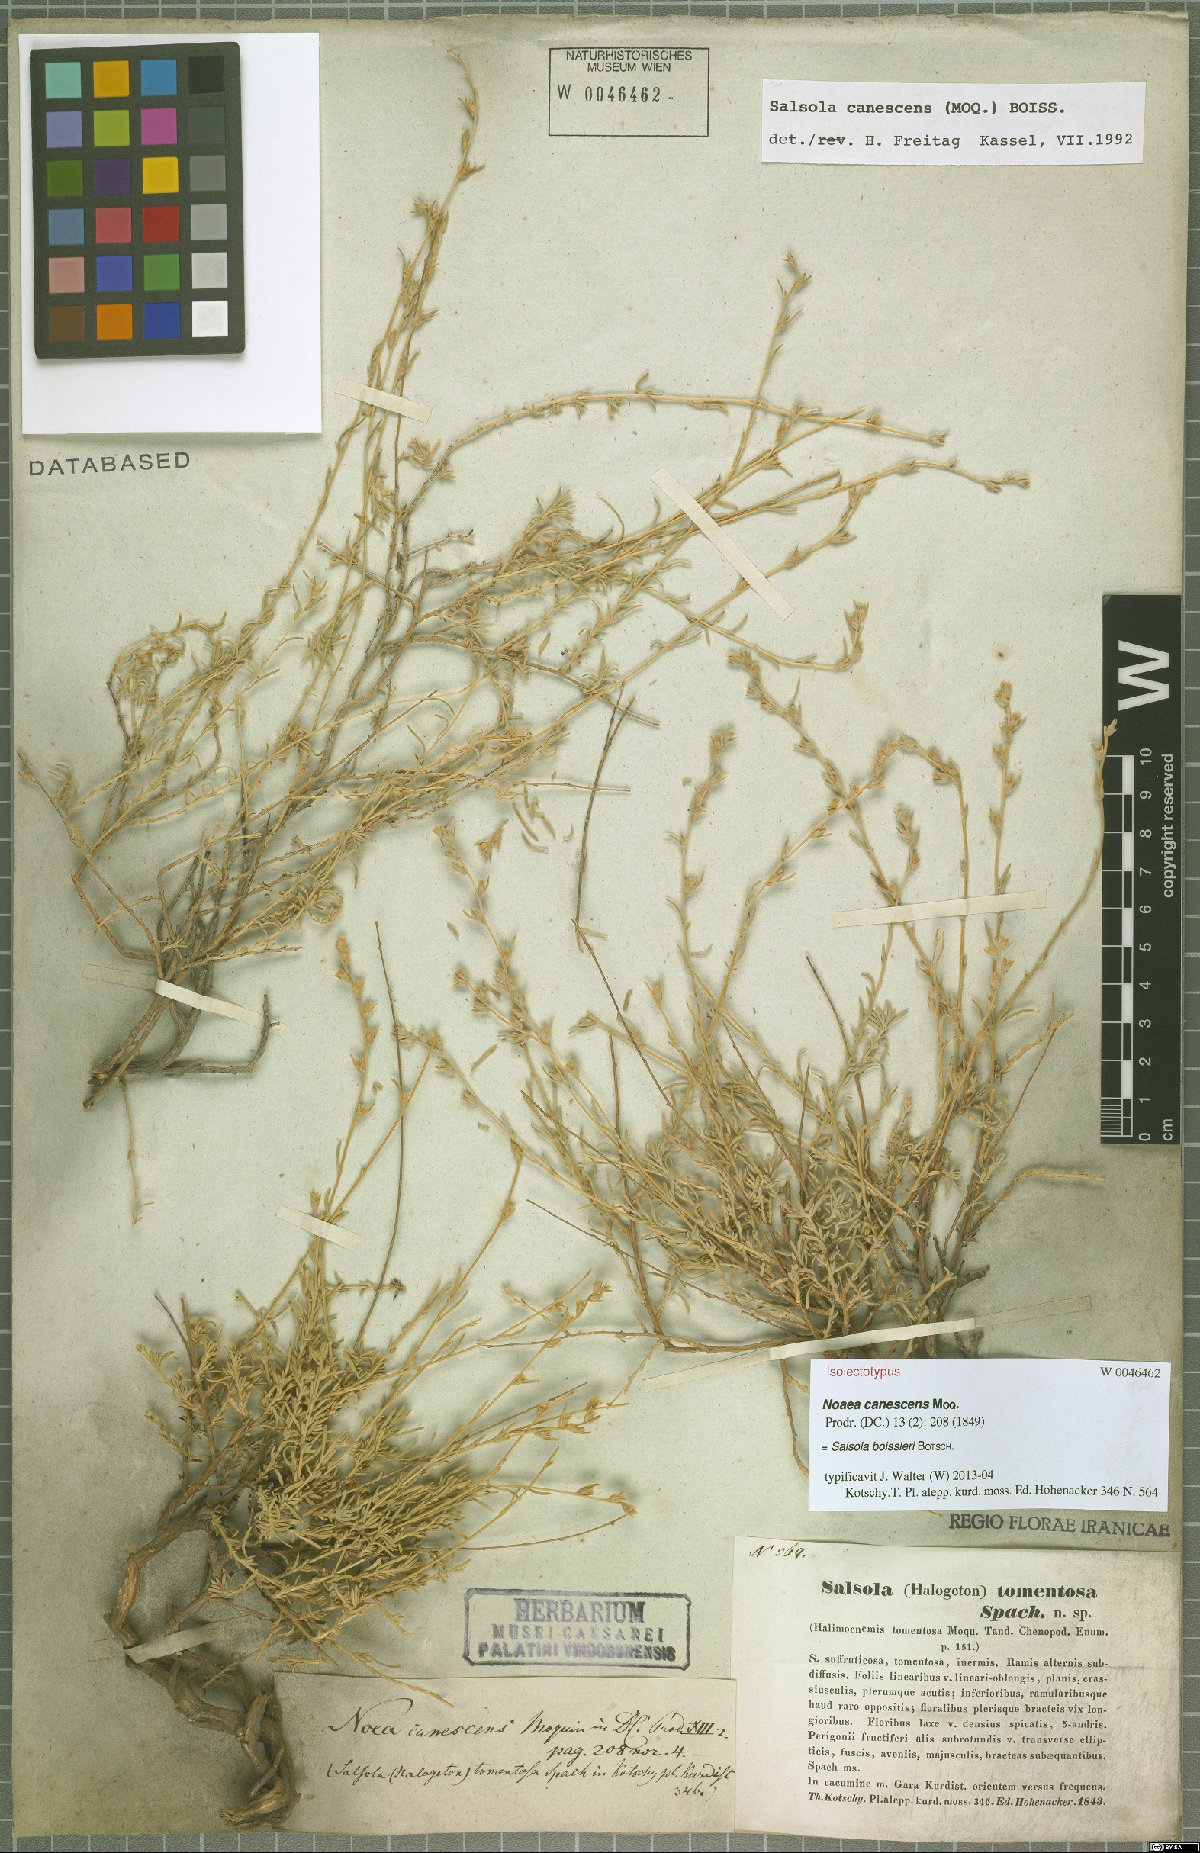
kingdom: Plantae
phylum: Tracheophyta
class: Magnoliopsida
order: Caryophyllales
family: Amaranthaceae
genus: Akhania
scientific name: Akhania canescens
